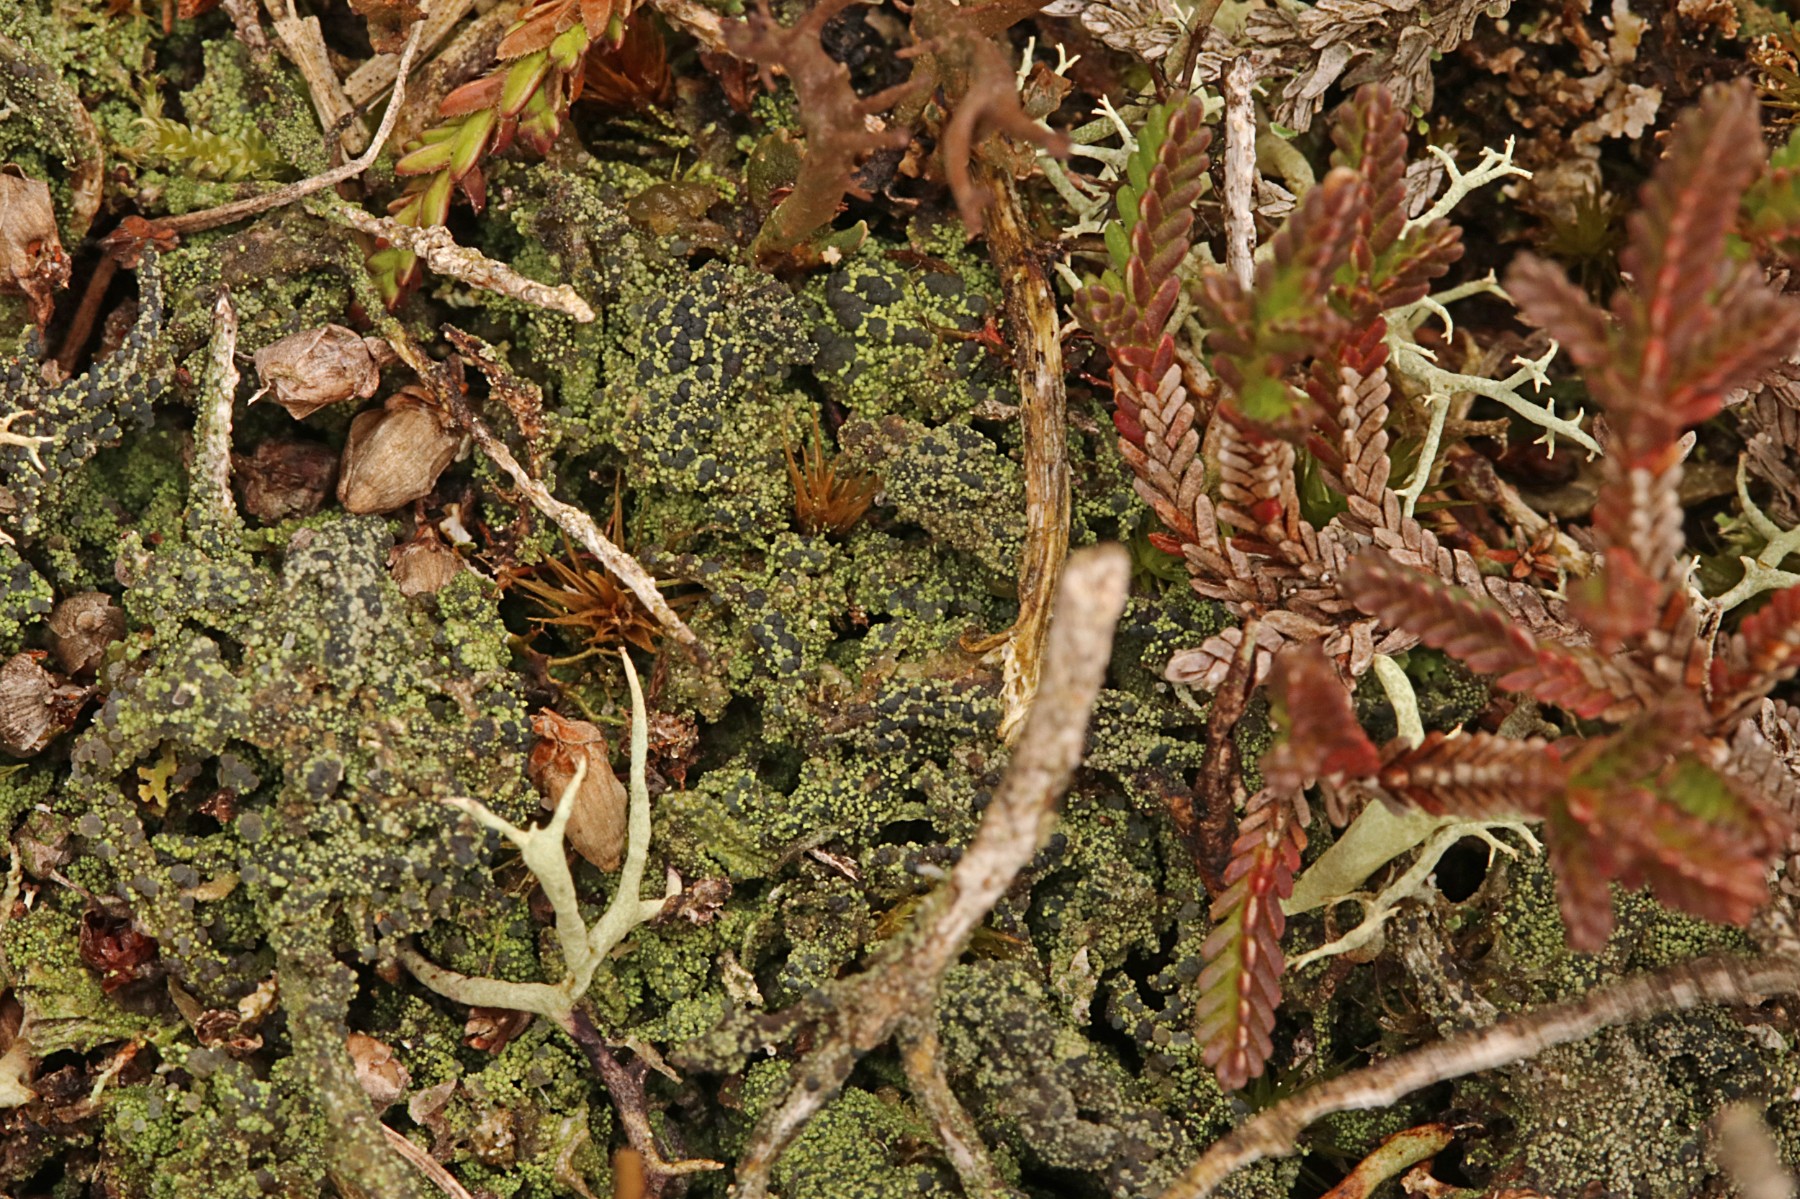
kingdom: Fungi
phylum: Ascomycota
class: Lecanoromycetes
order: Lecanorales
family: Byssolomataceae
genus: Micarea
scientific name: Micarea lignaria
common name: tørve-knaplav
